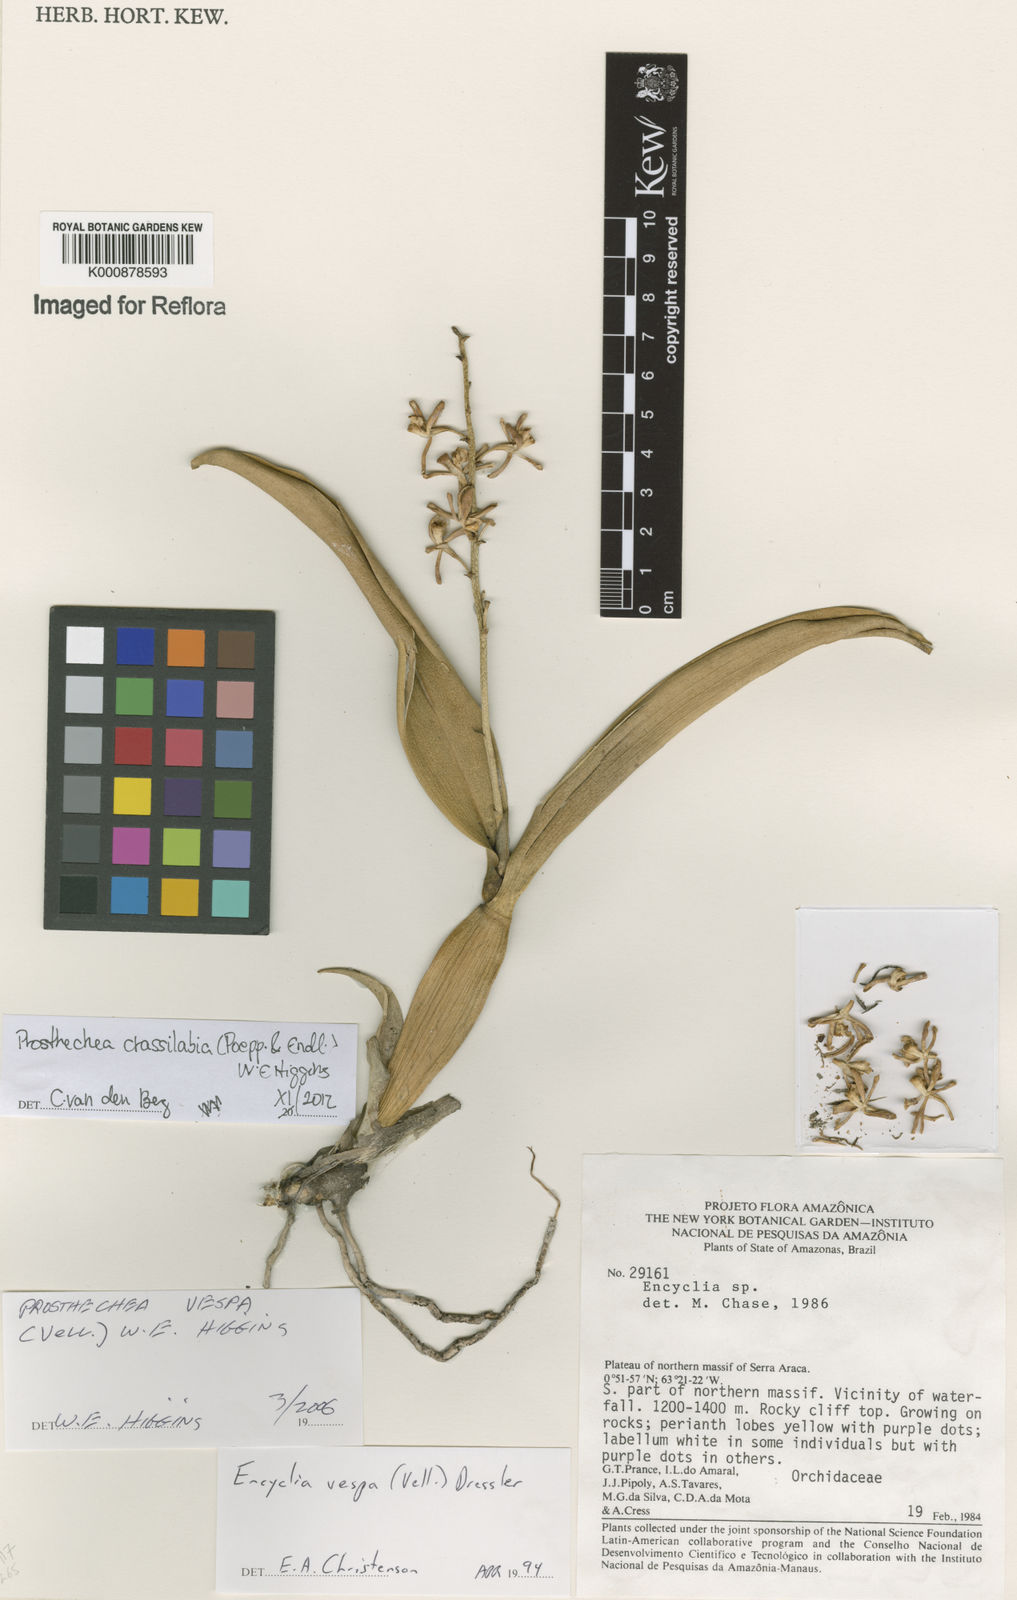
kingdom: Plantae
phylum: Tracheophyta
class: Liliopsida
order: Asparagales
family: Orchidaceae
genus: Prosthechea
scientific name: Prosthechea
